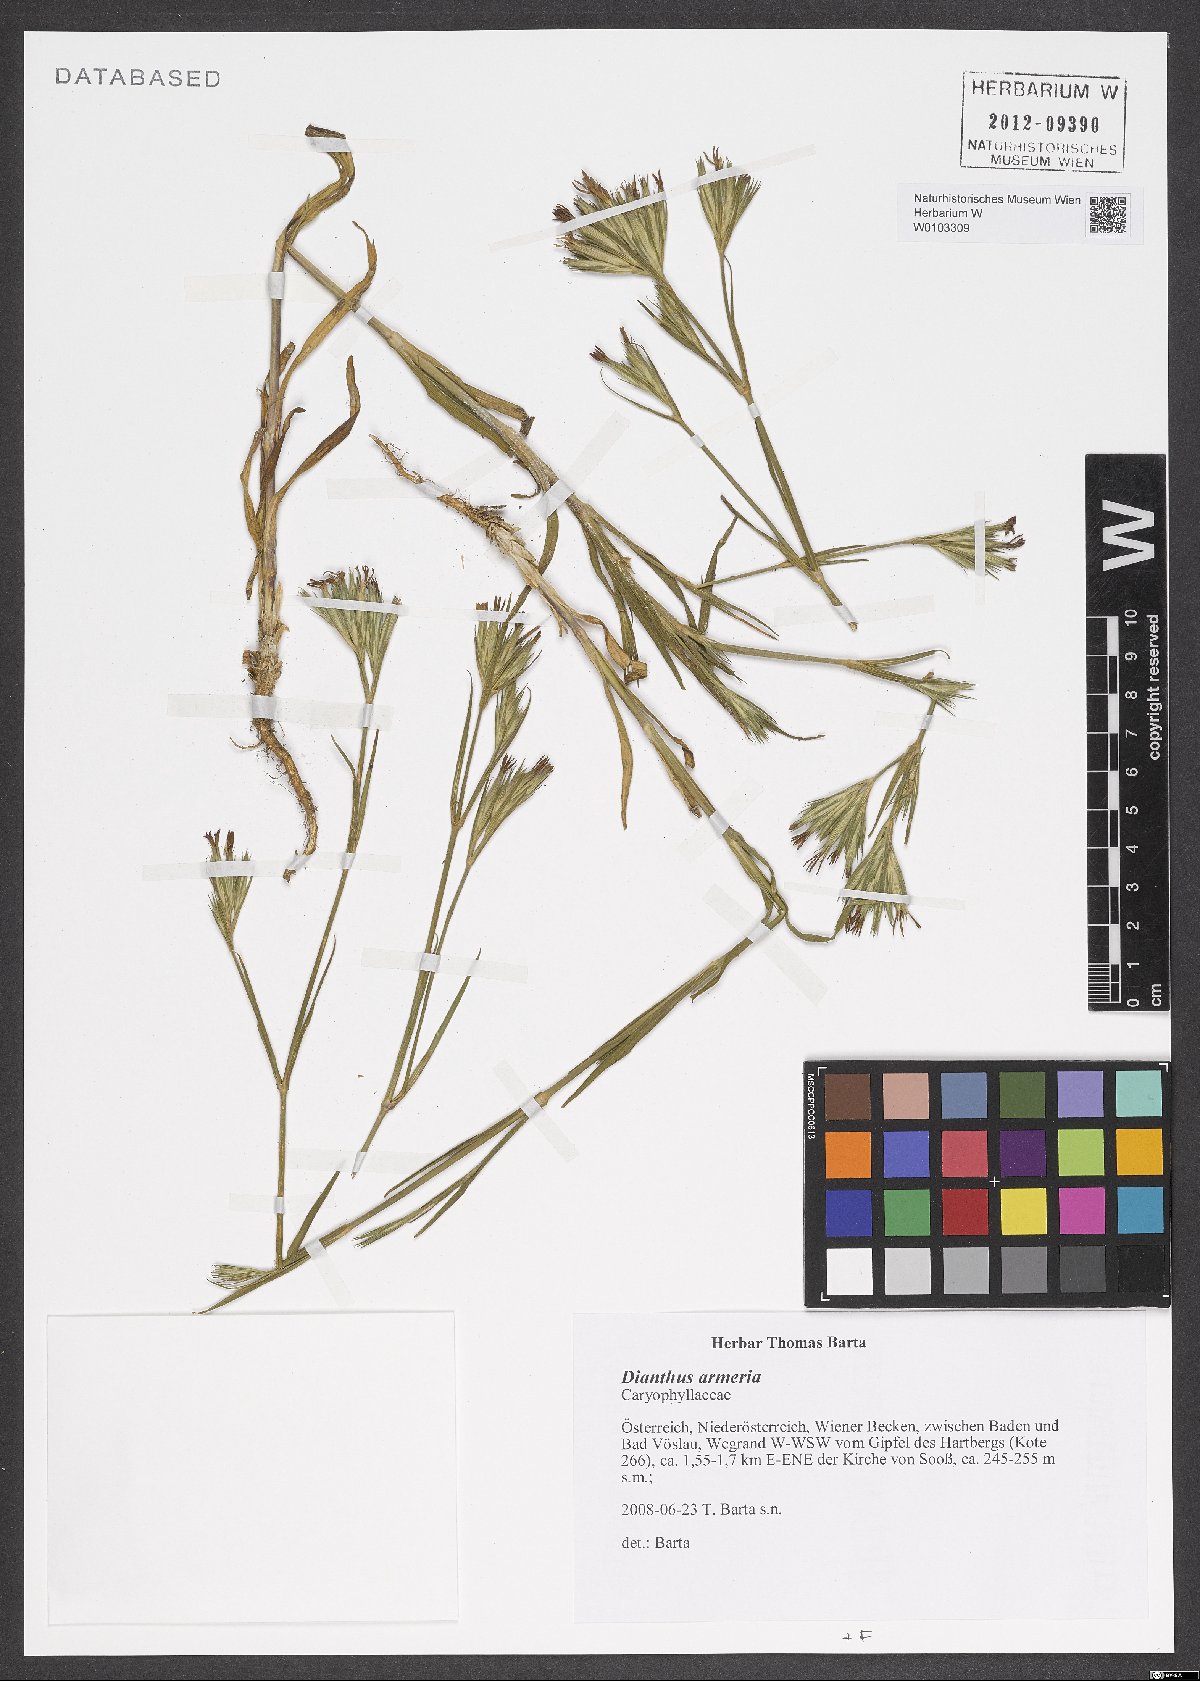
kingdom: Plantae
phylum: Tracheophyta
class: Magnoliopsida
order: Caryophyllales
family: Caryophyllaceae
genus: Dianthus
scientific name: Dianthus armeria
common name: Deptford pink
